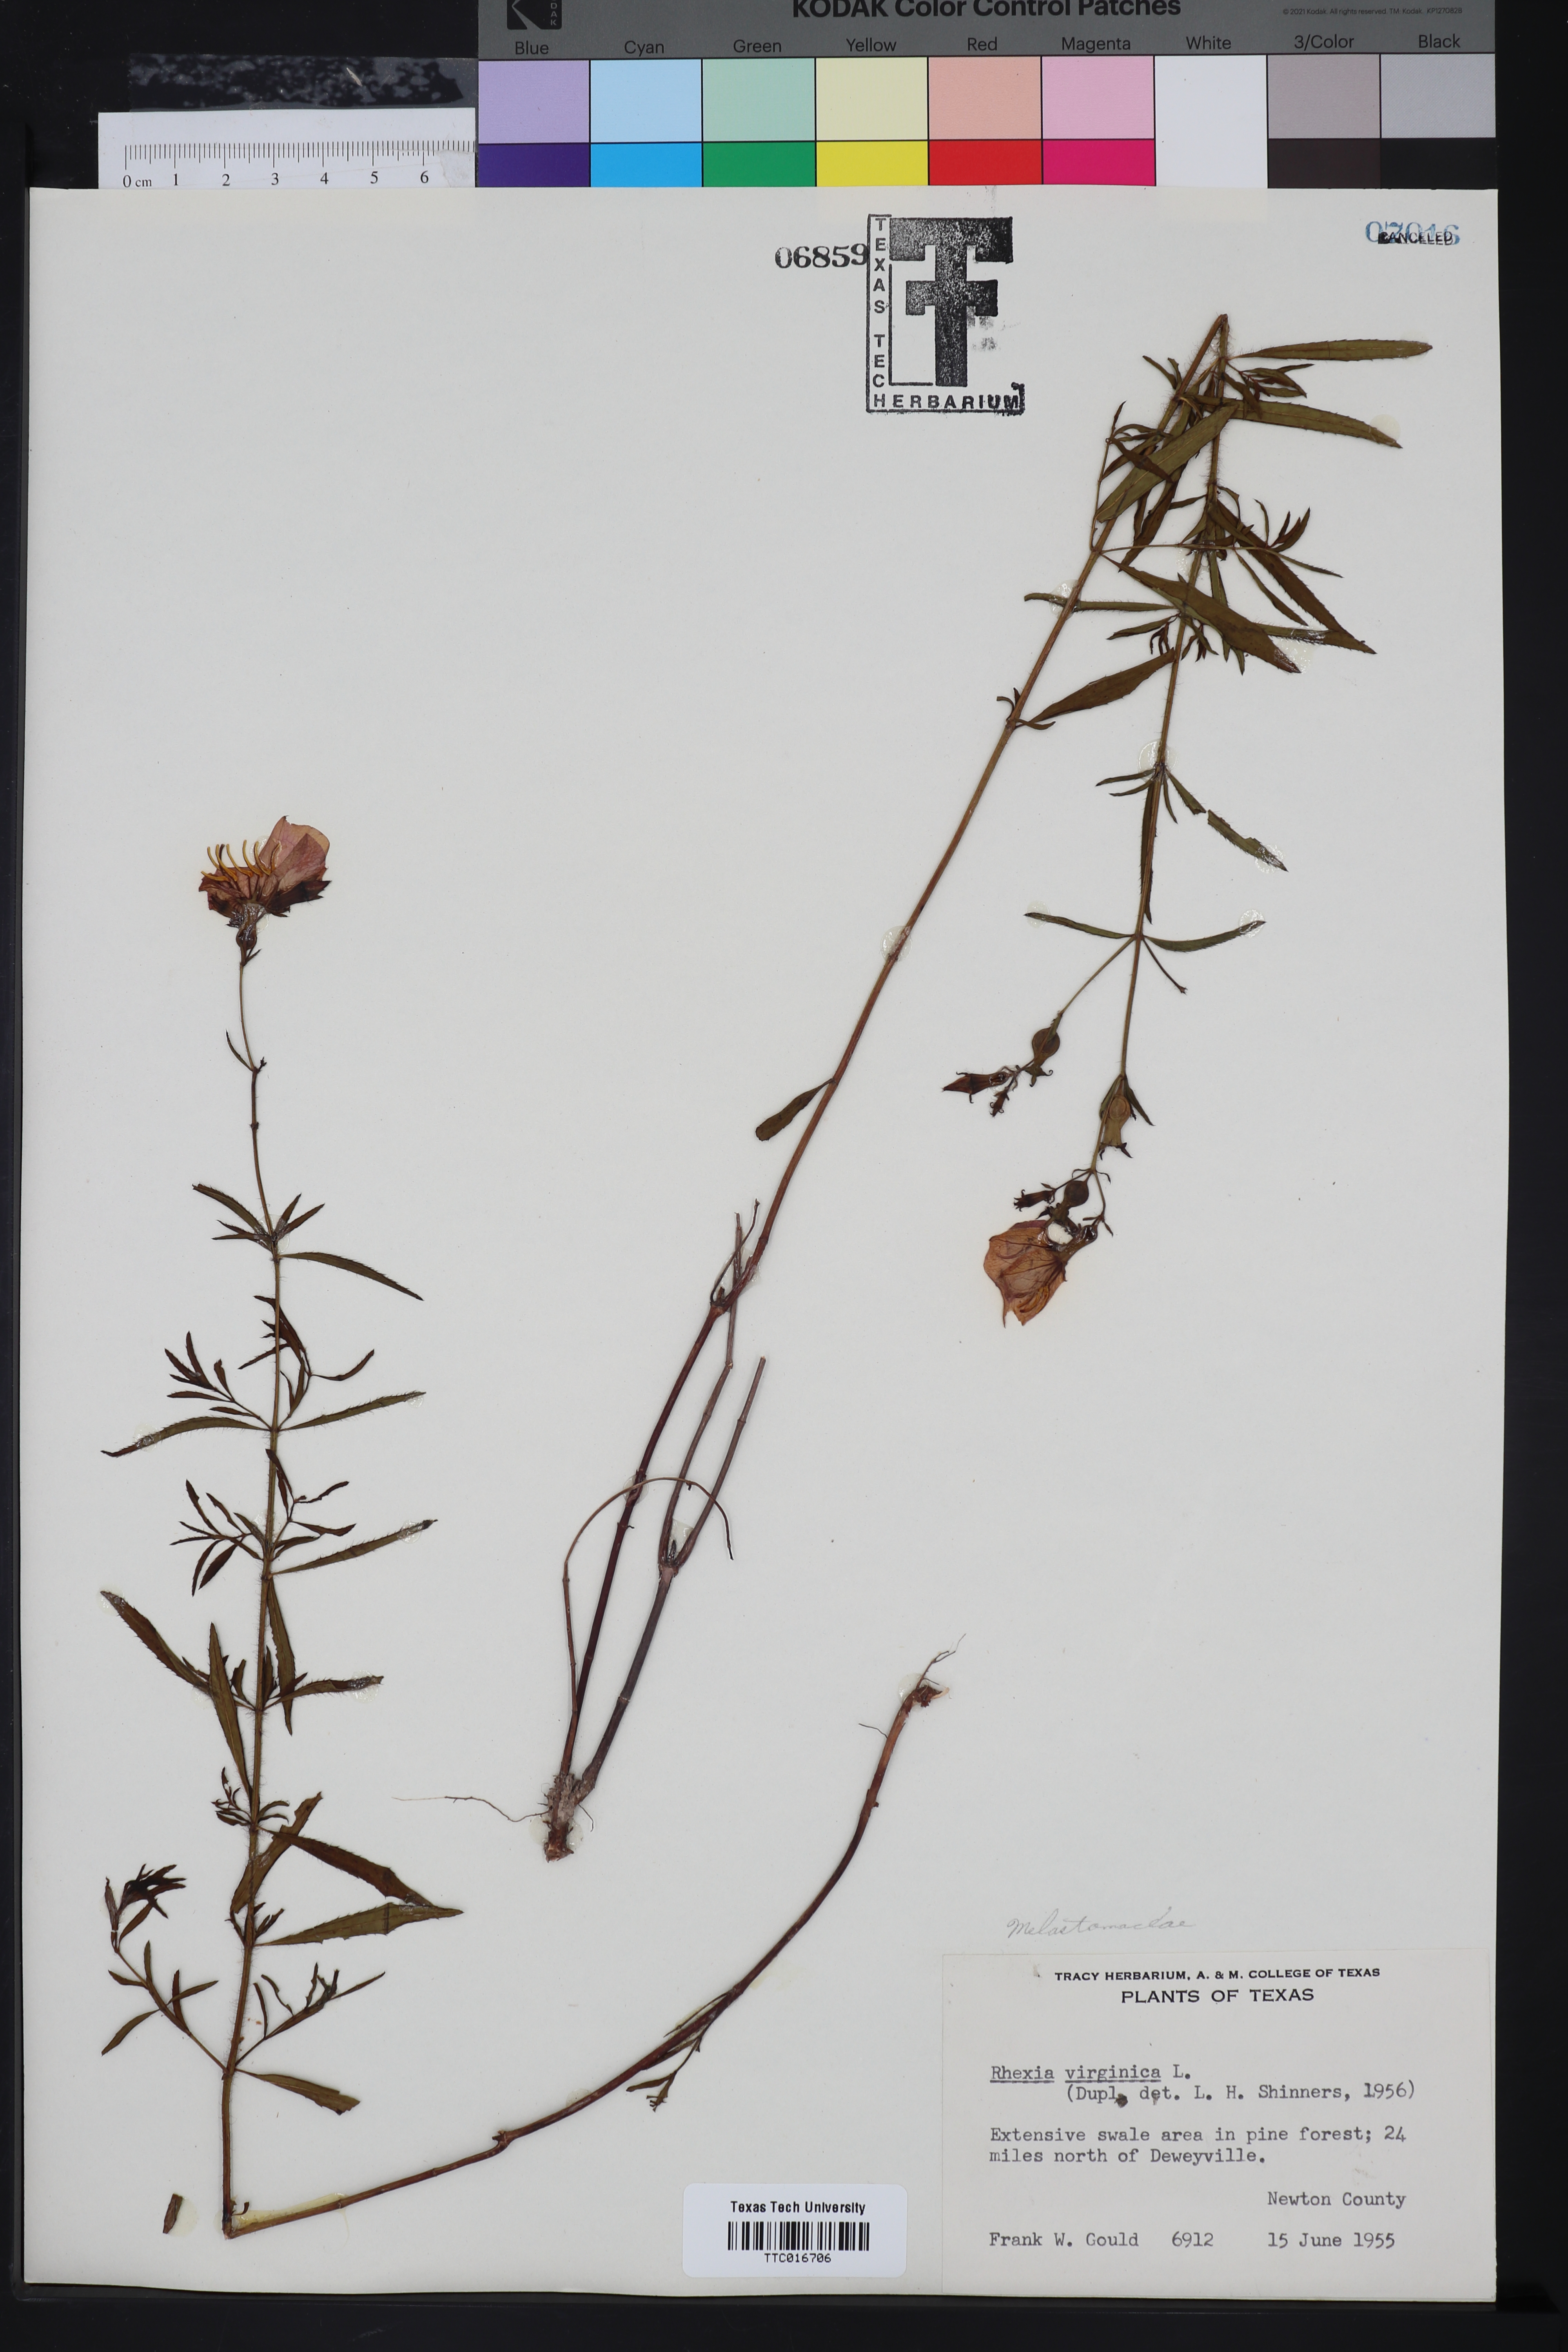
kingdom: Plantae
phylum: Tracheophyta
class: Magnoliopsida
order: Myrtales
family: Melastomataceae
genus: Rhexia
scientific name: Rhexia virginica
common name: Common meadow beauty
